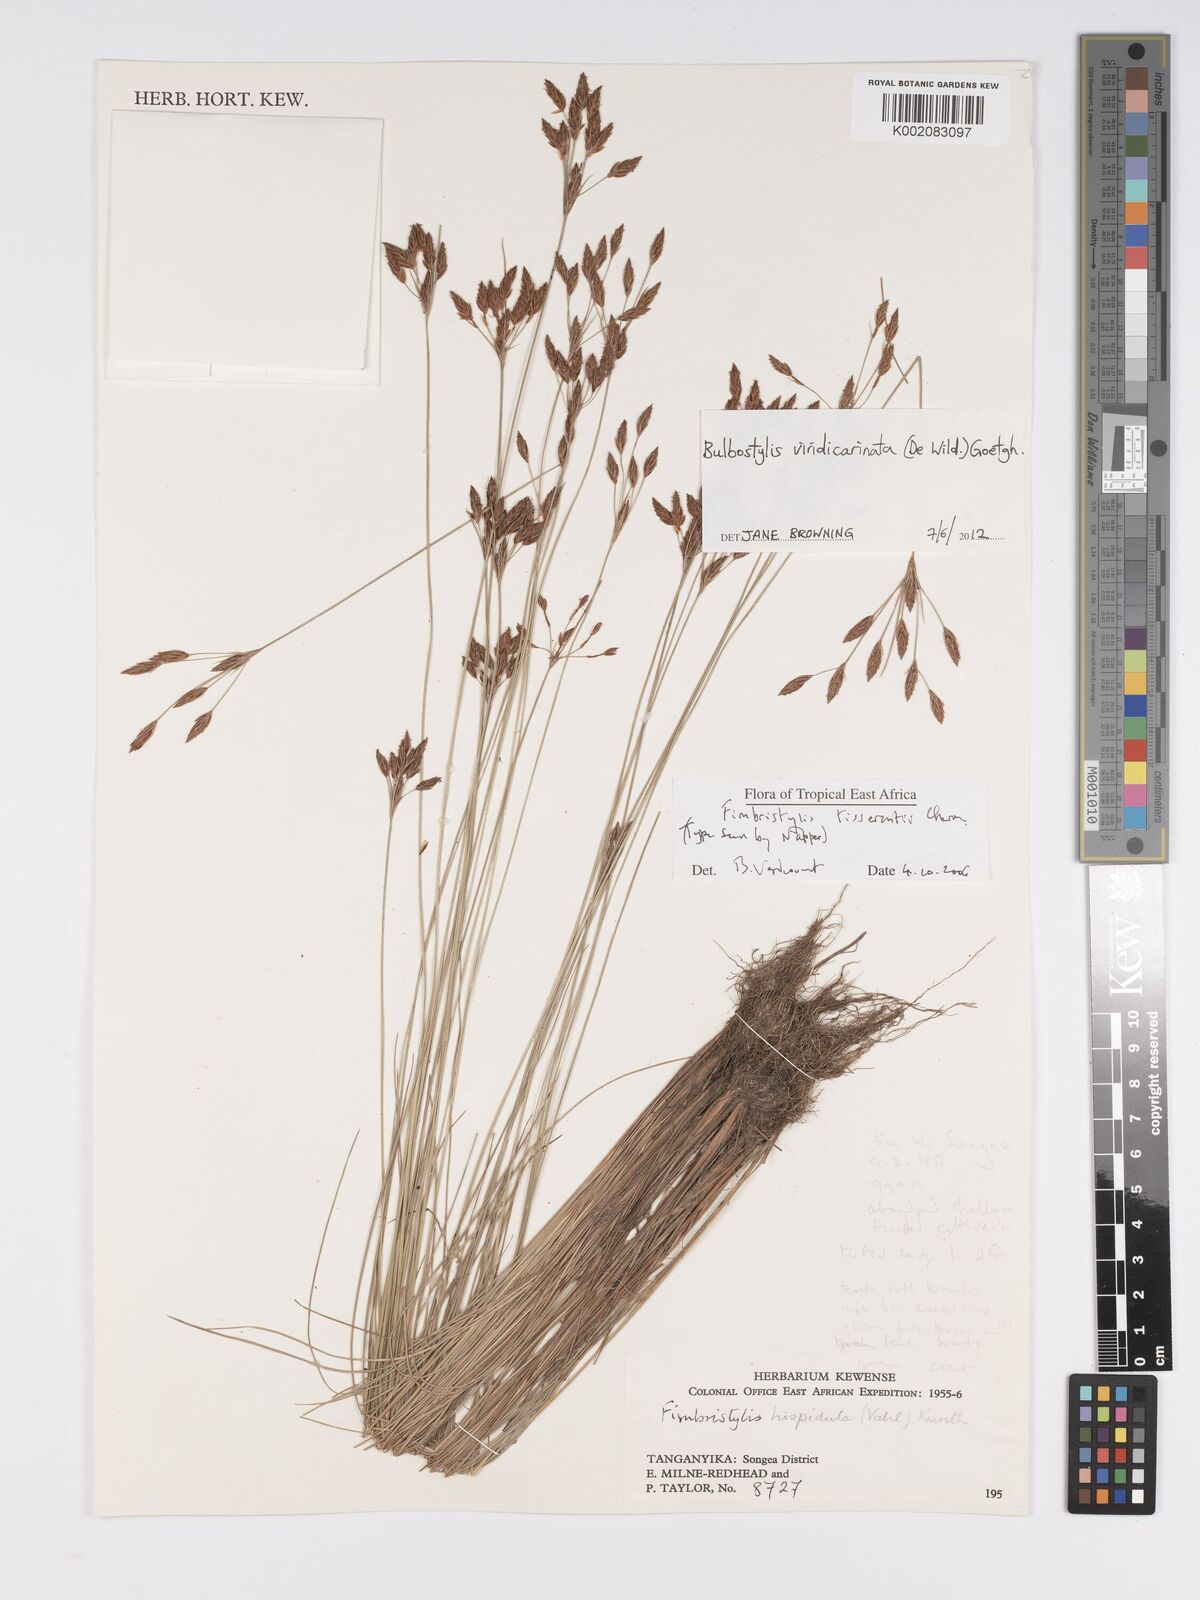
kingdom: Plantae
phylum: Tracheophyta
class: Liliopsida
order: Poales
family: Cyperaceae
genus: Bulbostylis
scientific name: Bulbostylis viridecarinata
